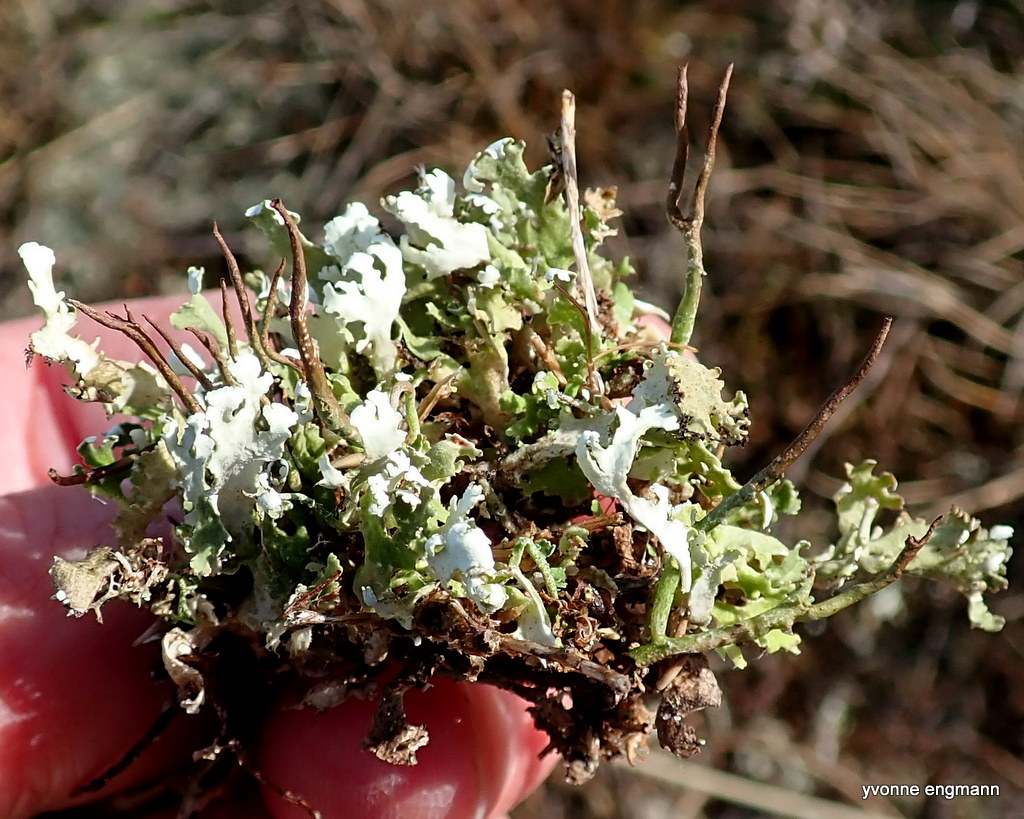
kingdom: Fungi
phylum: Ascomycota
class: Lecanoromycetes
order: Lecanorales
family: Cladoniaceae
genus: Cladonia
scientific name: Cladonia foliacea
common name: fliget bægerlav
